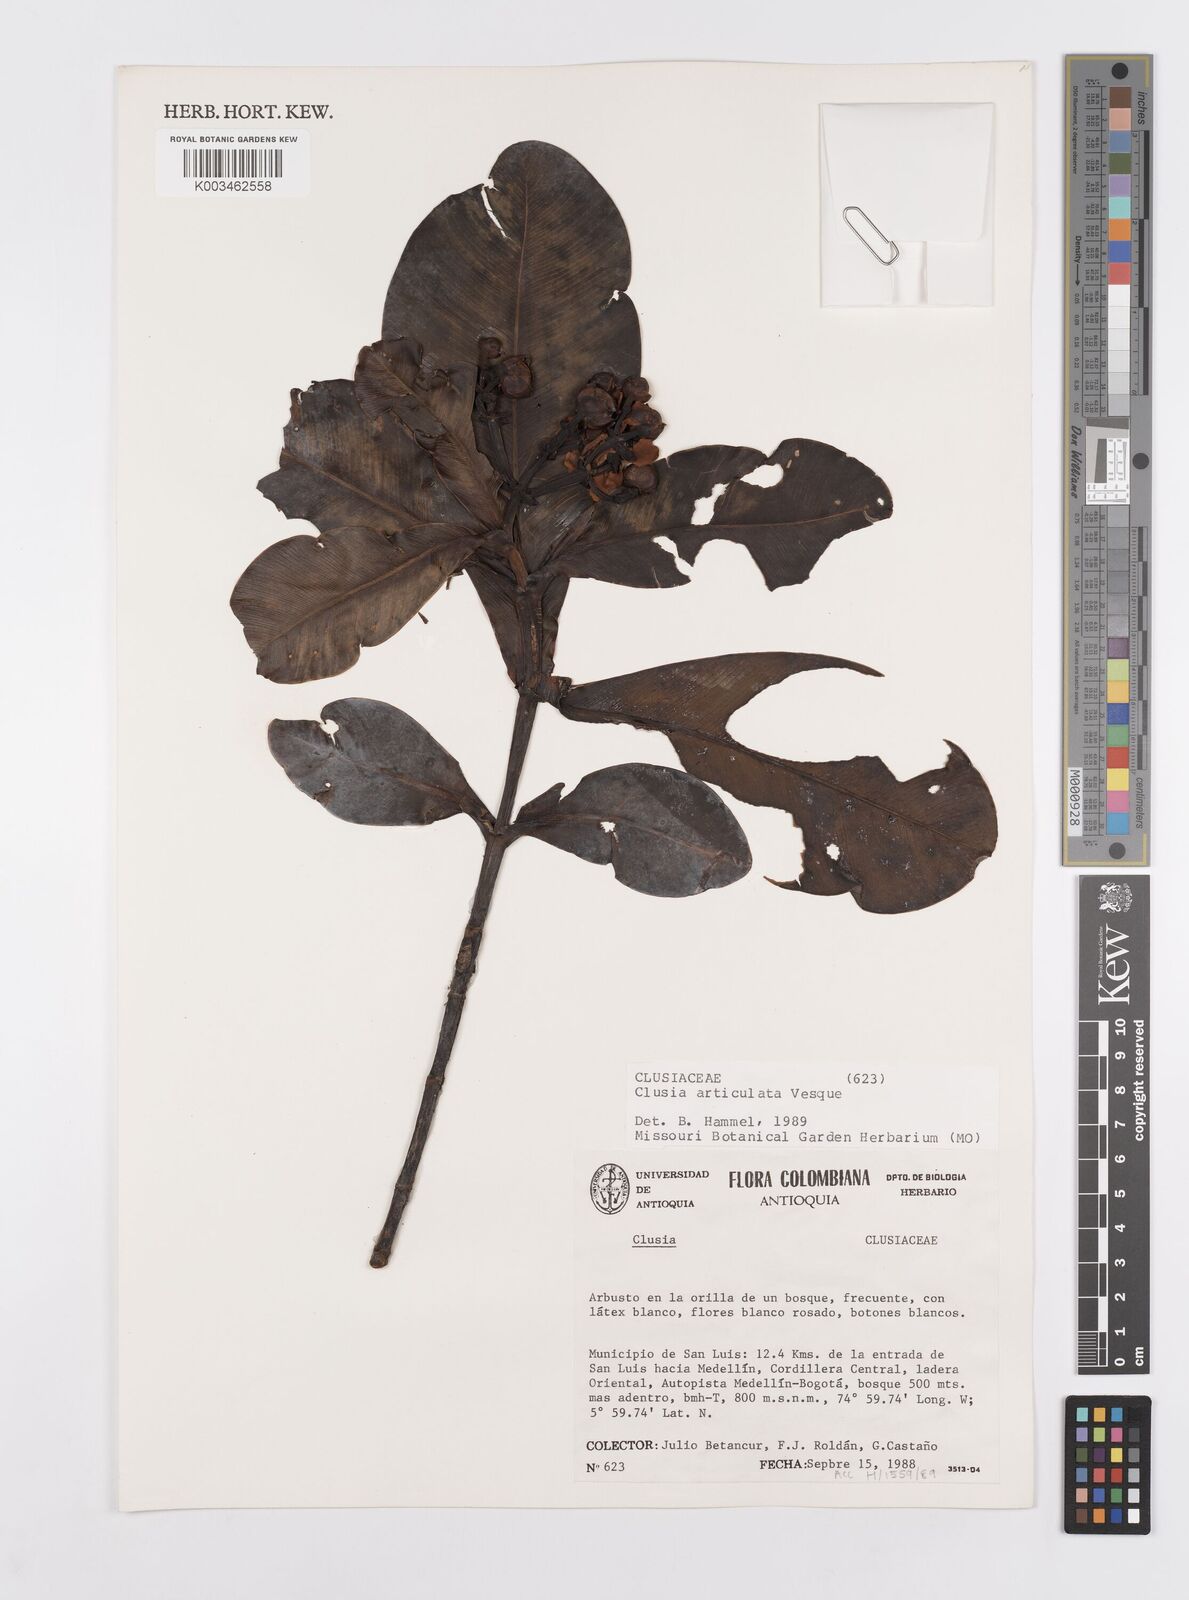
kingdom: Plantae
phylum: Tracheophyta
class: Magnoliopsida
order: Malpighiales
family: Clusiaceae
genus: Clusia
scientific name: Clusia articulata
